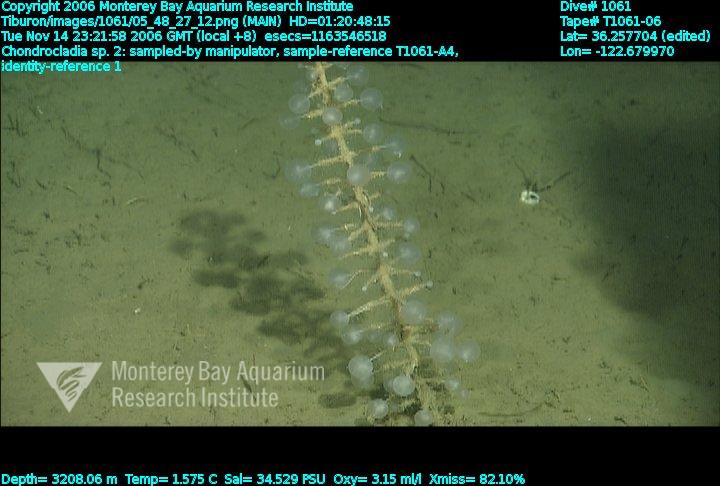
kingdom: Animalia
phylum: Porifera
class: Demospongiae
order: Poecilosclerida
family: Cladorhizidae
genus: Chondrocladia
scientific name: Chondrocladia
